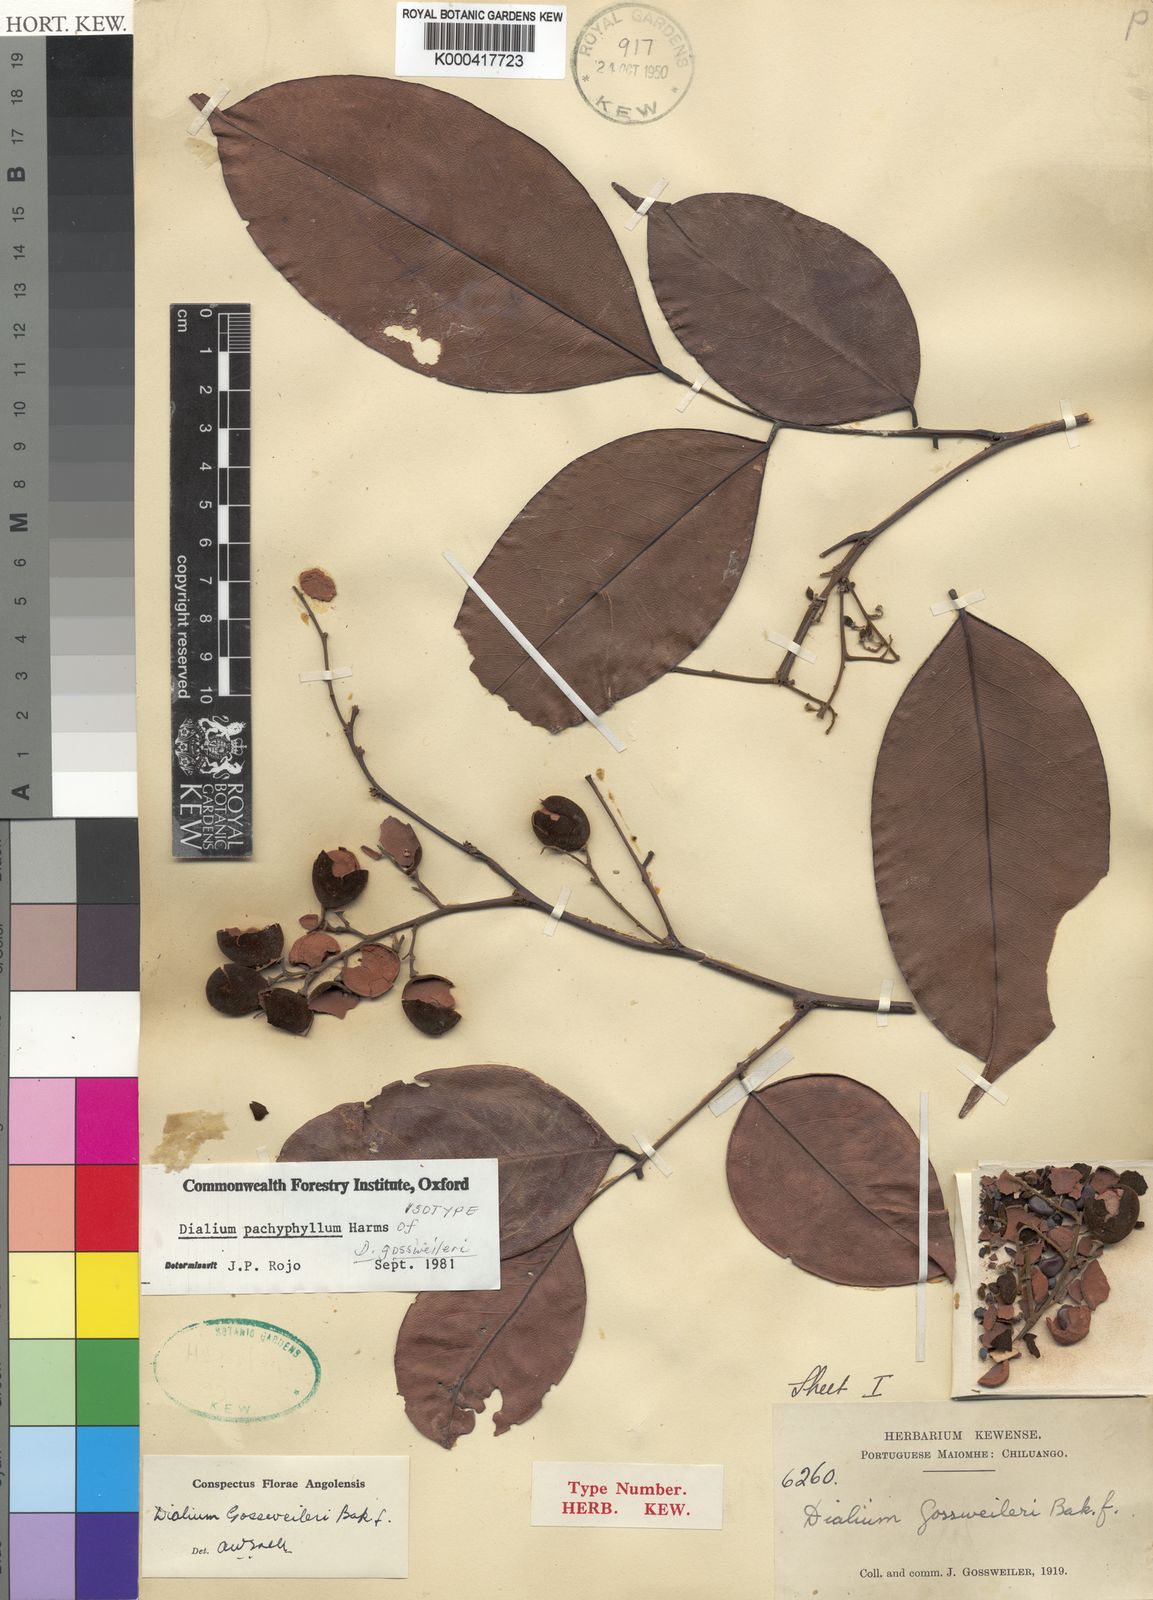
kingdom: Plantae
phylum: Tracheophyta
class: Magnoliopsida
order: Fabales
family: Fabaceae
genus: Dialium
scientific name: Dialium pachyphyllum
